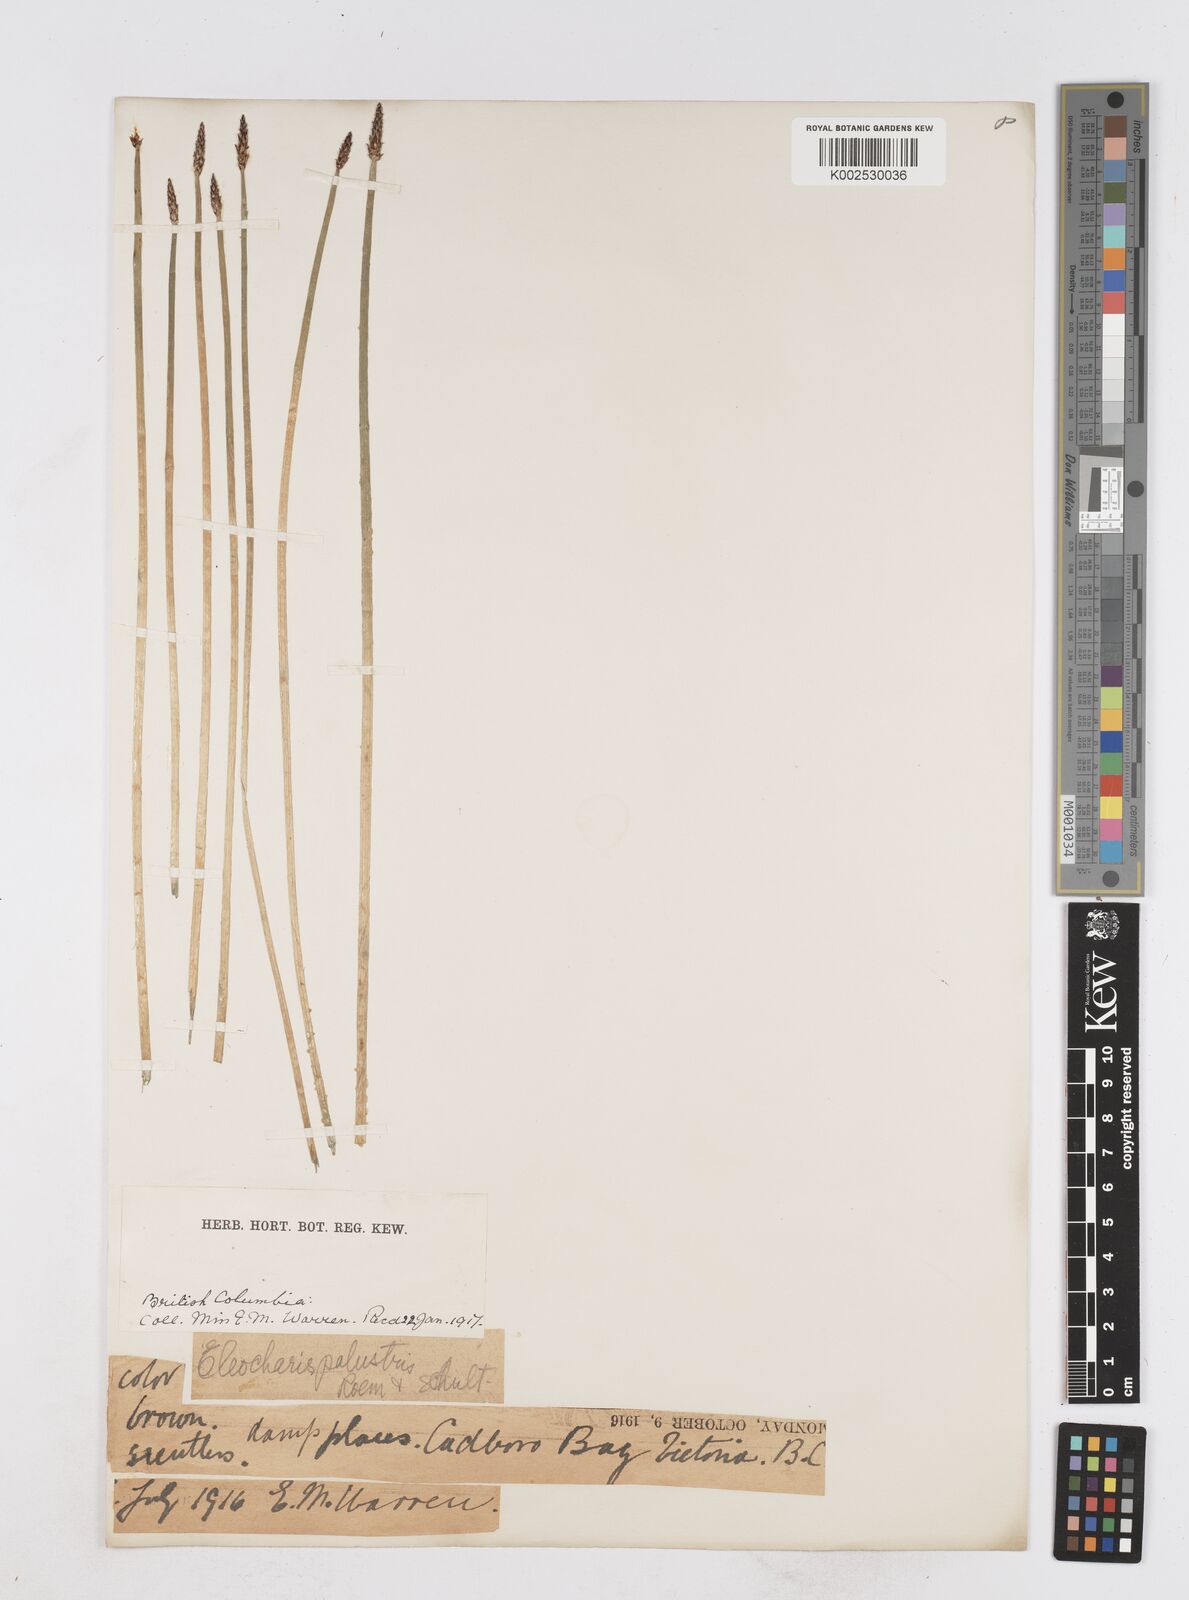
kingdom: Plantae
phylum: Tracheophyta
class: Liliopsida
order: Poales
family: Cyperaceae
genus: Eleocharis
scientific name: Eleocharis palustris
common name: Common spike-rush
